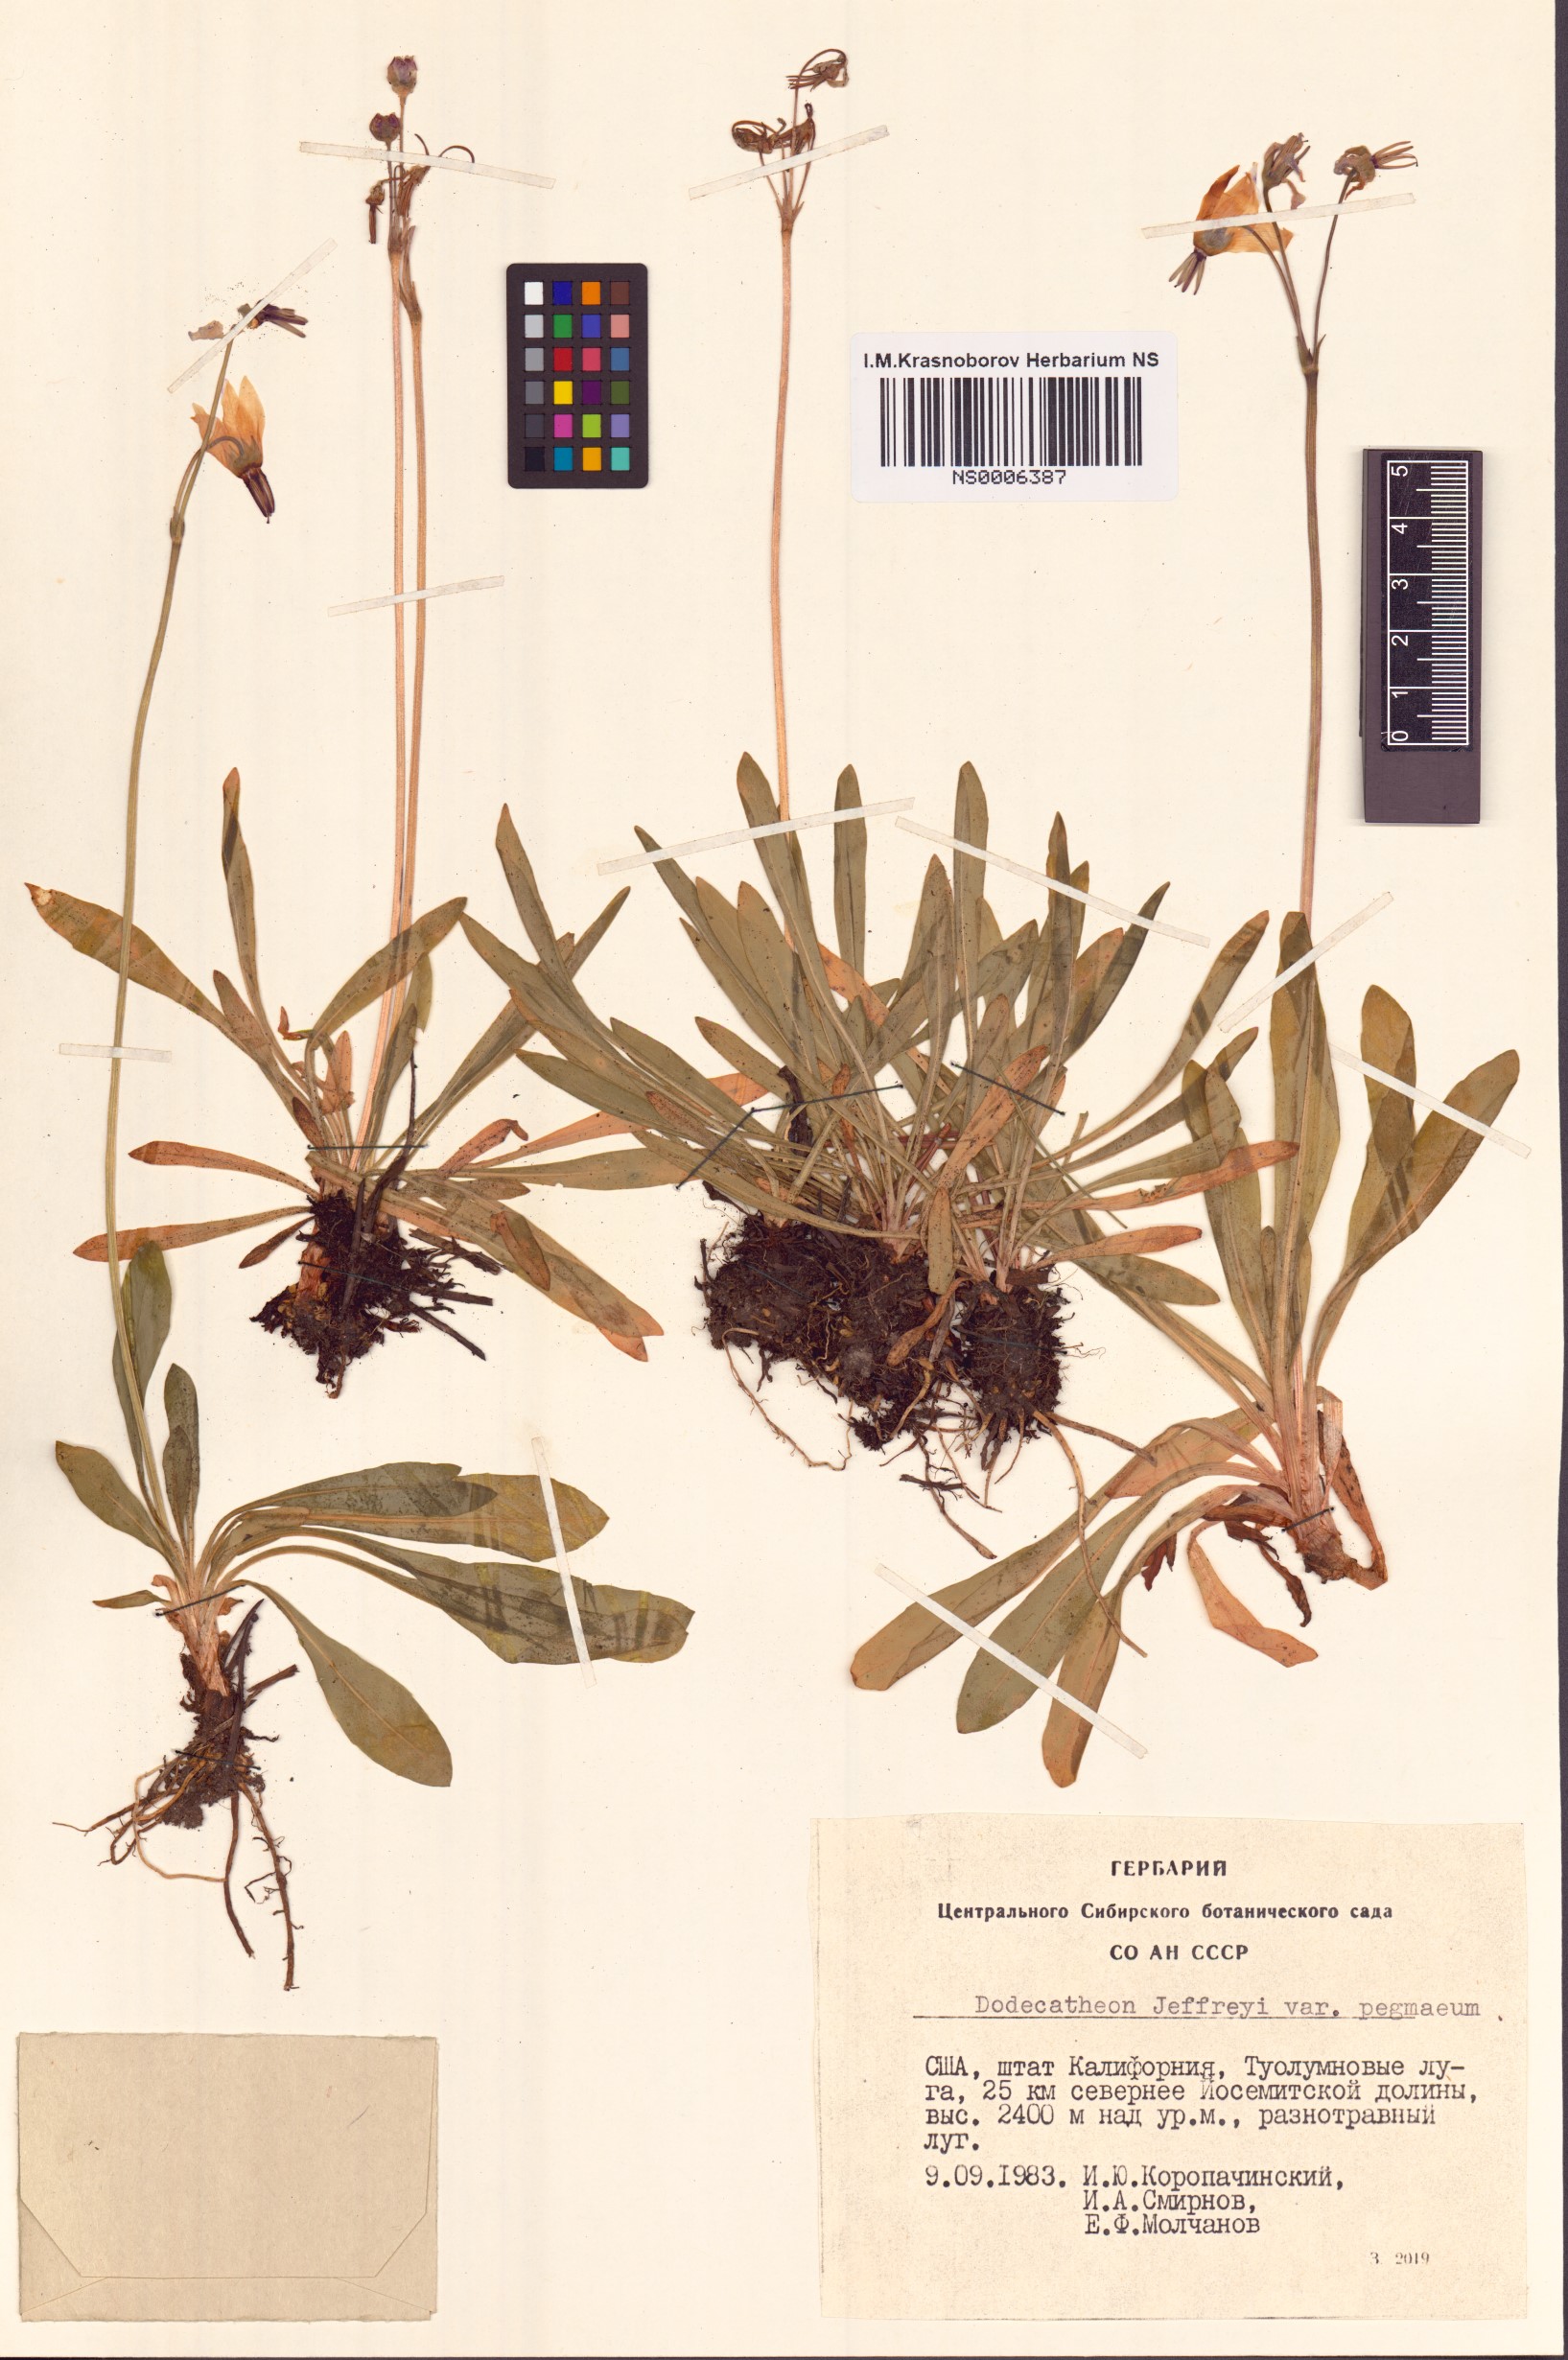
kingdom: Plantae
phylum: Tracheophyta
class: Magnoliopsida
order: Ericales
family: Primulaceae
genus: Dodecatheon
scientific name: Dodecatheon jeffreyanum
